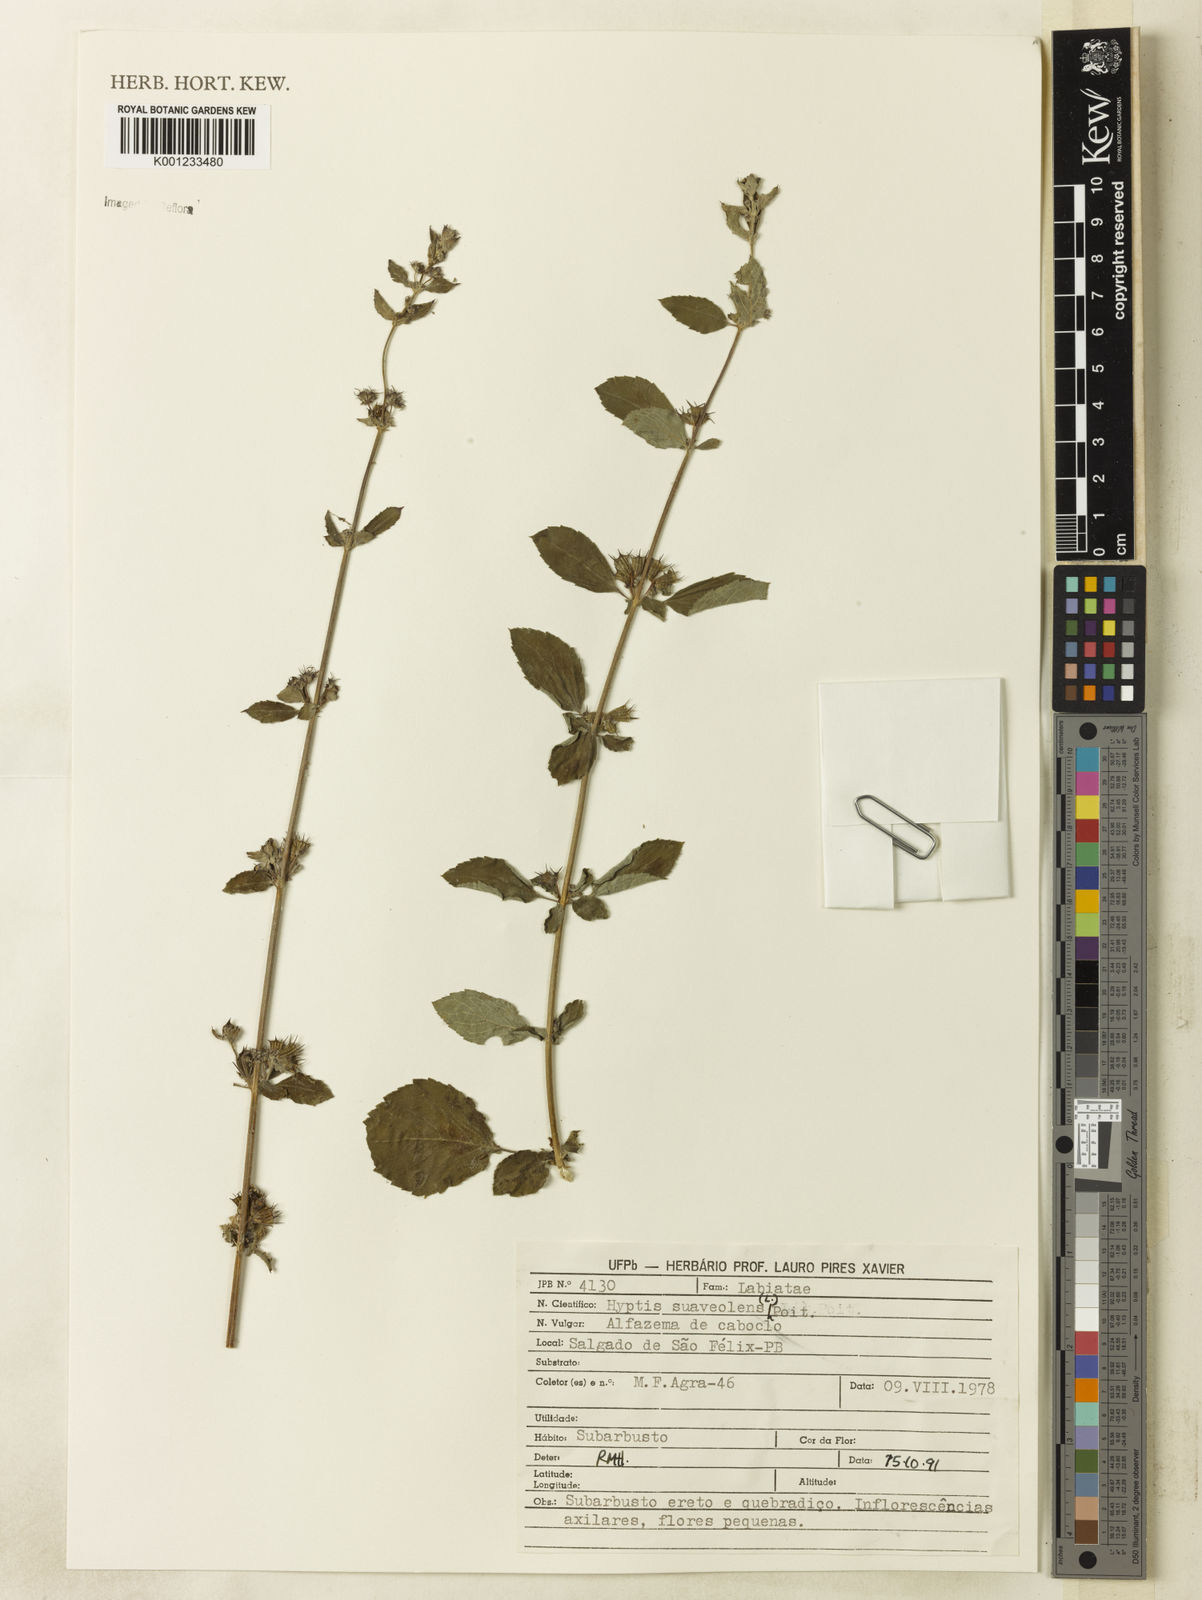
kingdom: Plantae
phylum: Tracheophyta
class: Magnoliopsida
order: Lamiales
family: Lamiaceae
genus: Mesosphaerum
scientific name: Mesosphaerum suaveolens
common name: Pignut
